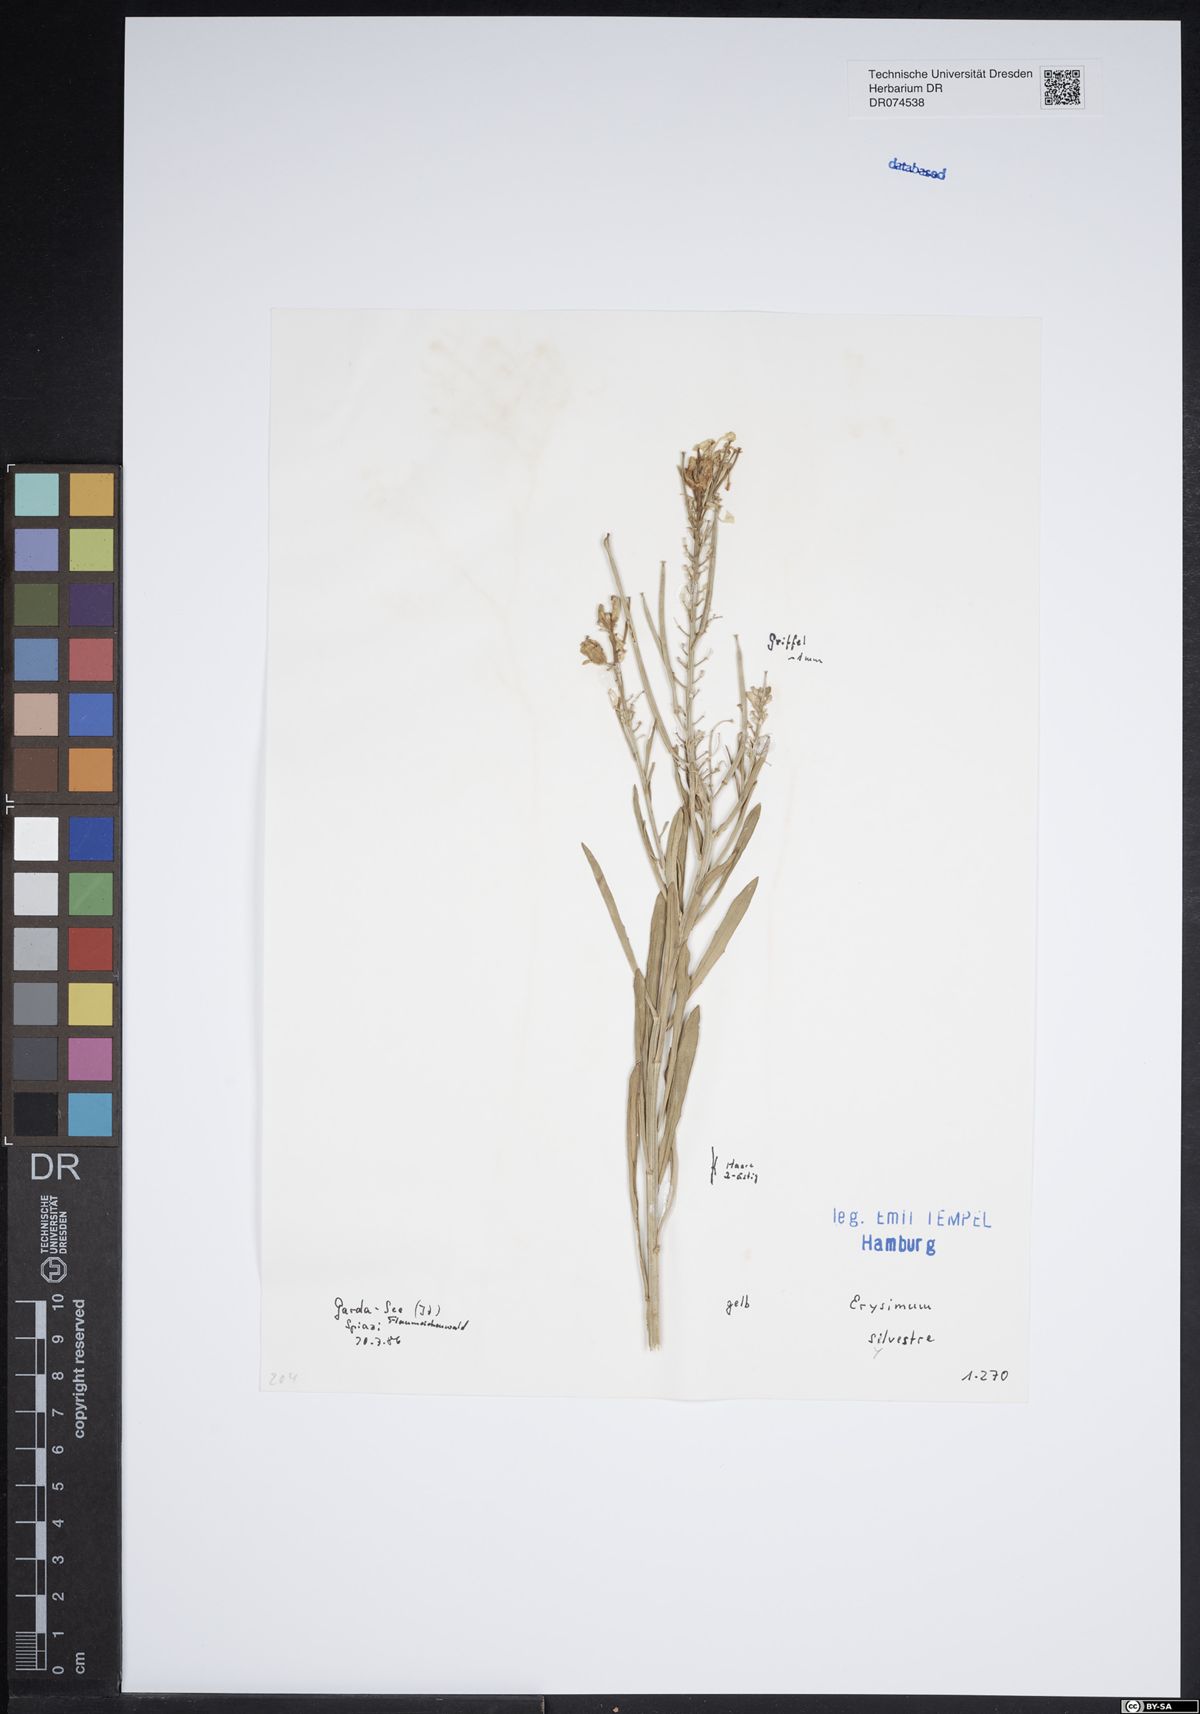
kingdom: Plantae
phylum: Tracheophyta
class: Magnoliopsida
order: Brassicales
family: Brassicaceae
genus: Erysimum
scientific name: Erysimum sylvestre
